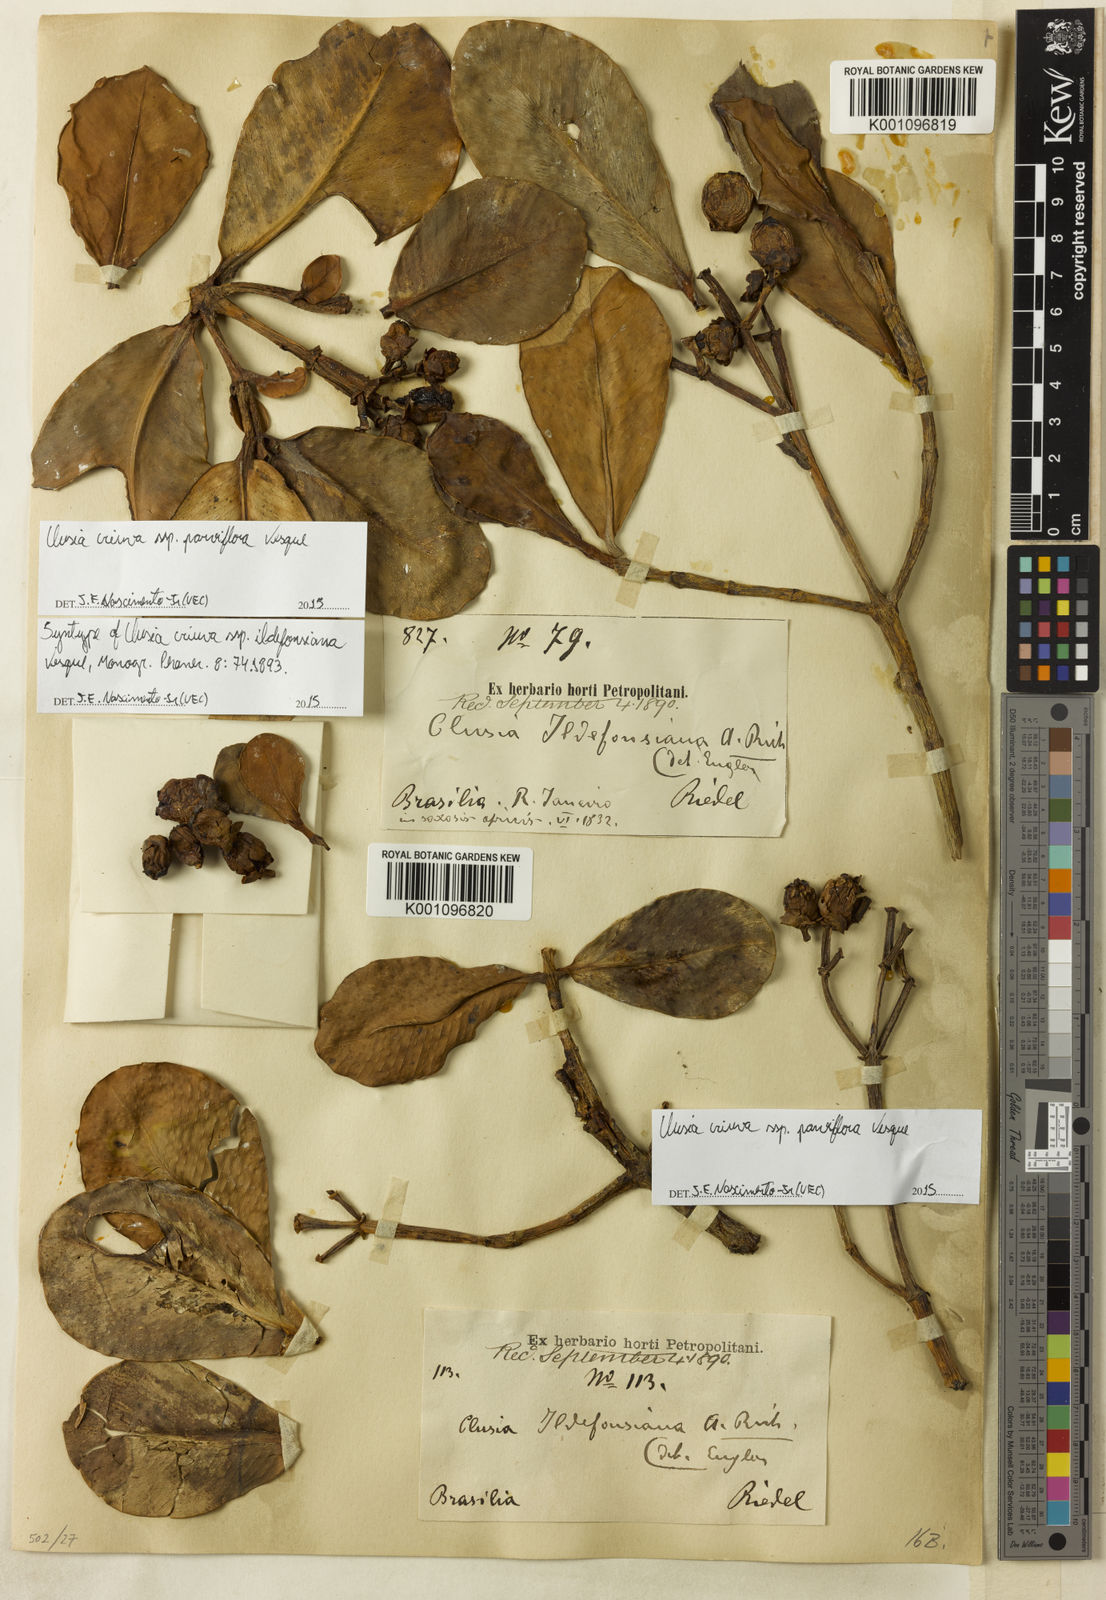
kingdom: Plantae
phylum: Tracheophyta
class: Magnoliopsida
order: Malpighiales
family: Clusiaceae
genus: Clusia
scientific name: Clusia criuva
